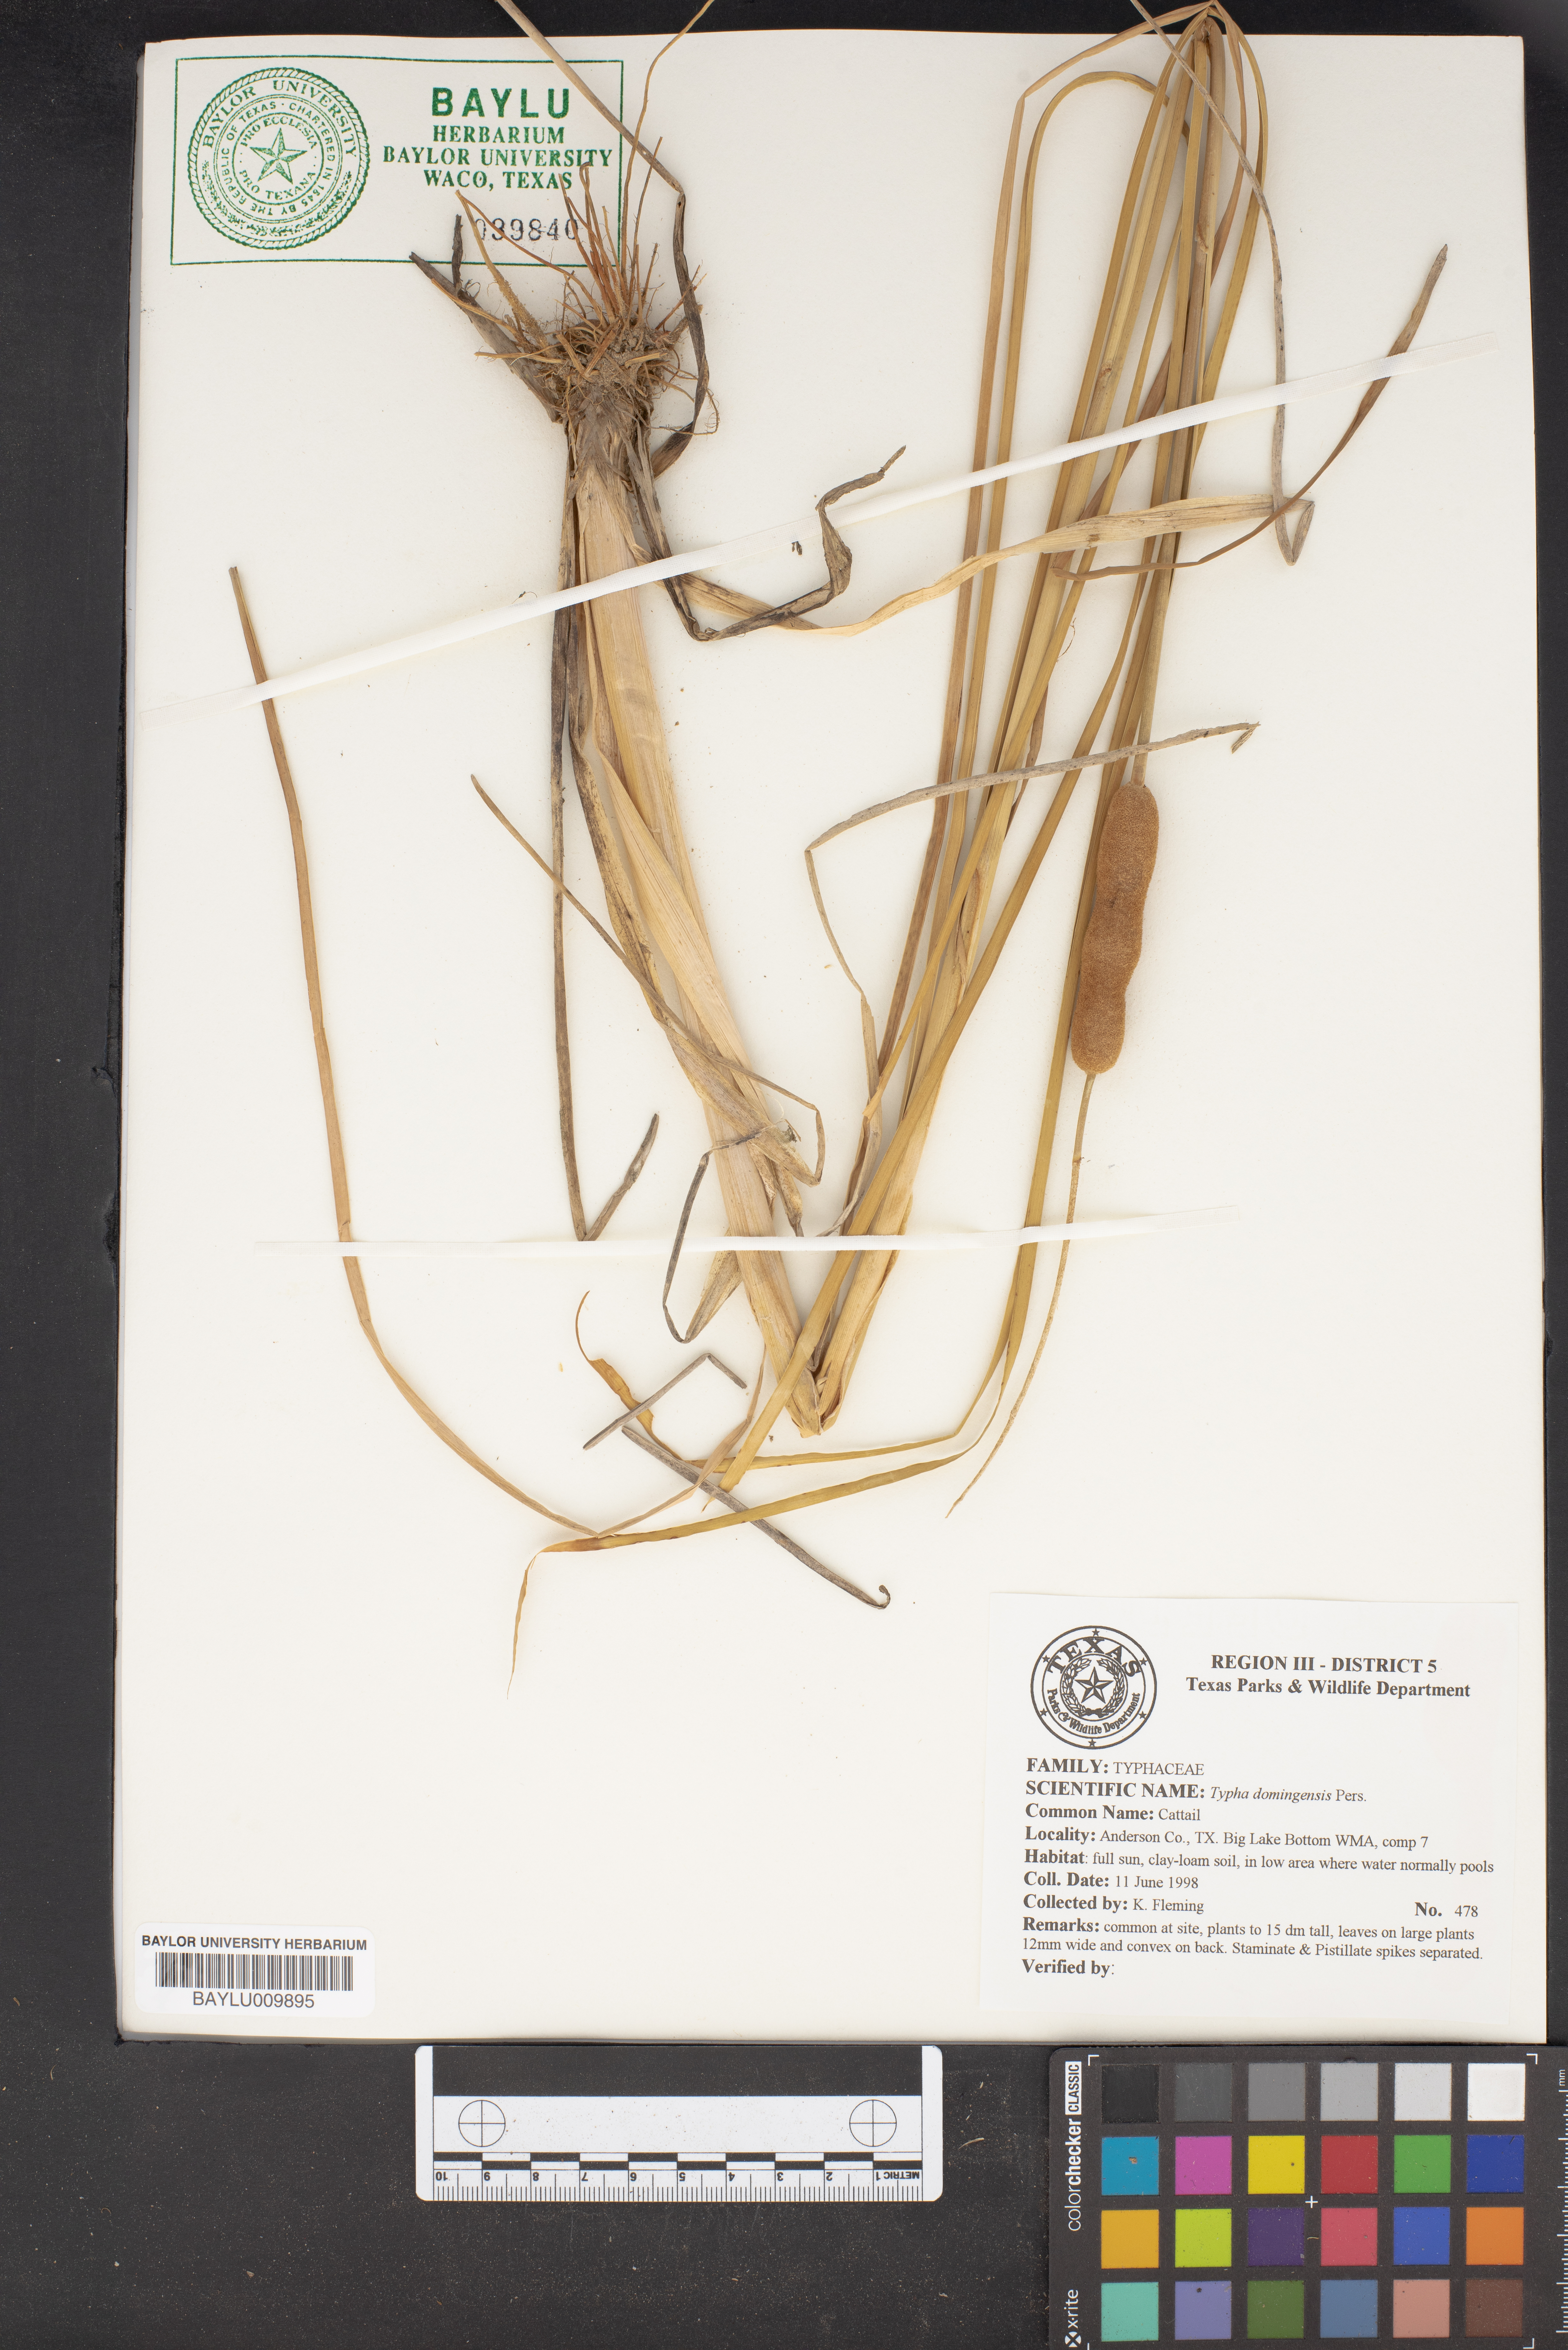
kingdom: Plantae
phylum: Tracheophyta
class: Liliopsida
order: Poales
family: Typhaceae
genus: Typha
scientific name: Typha domingensis
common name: Southern cattail
